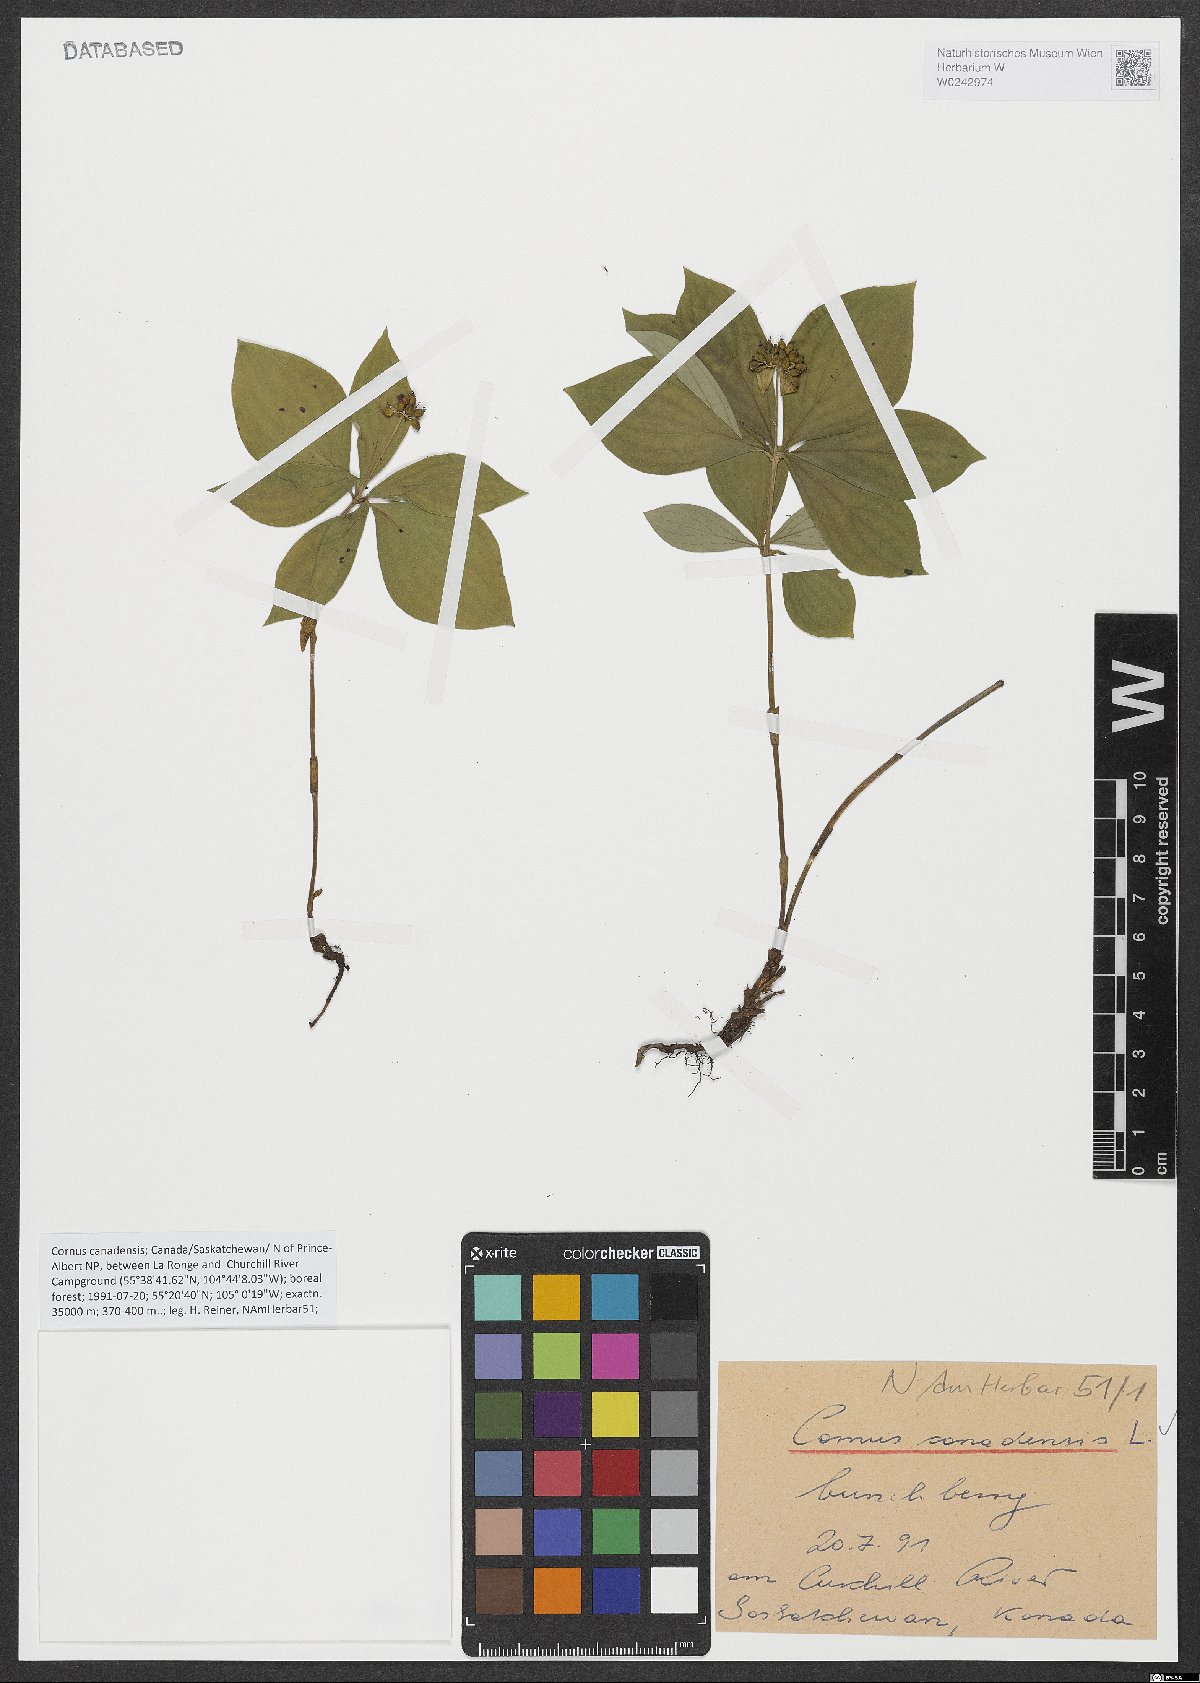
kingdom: Plantae
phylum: Tracheophyta
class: Magnoliopsida
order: Cornales
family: Cornaceae
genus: Cornus
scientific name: Cornus canadensis
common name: Creeping dogwood
